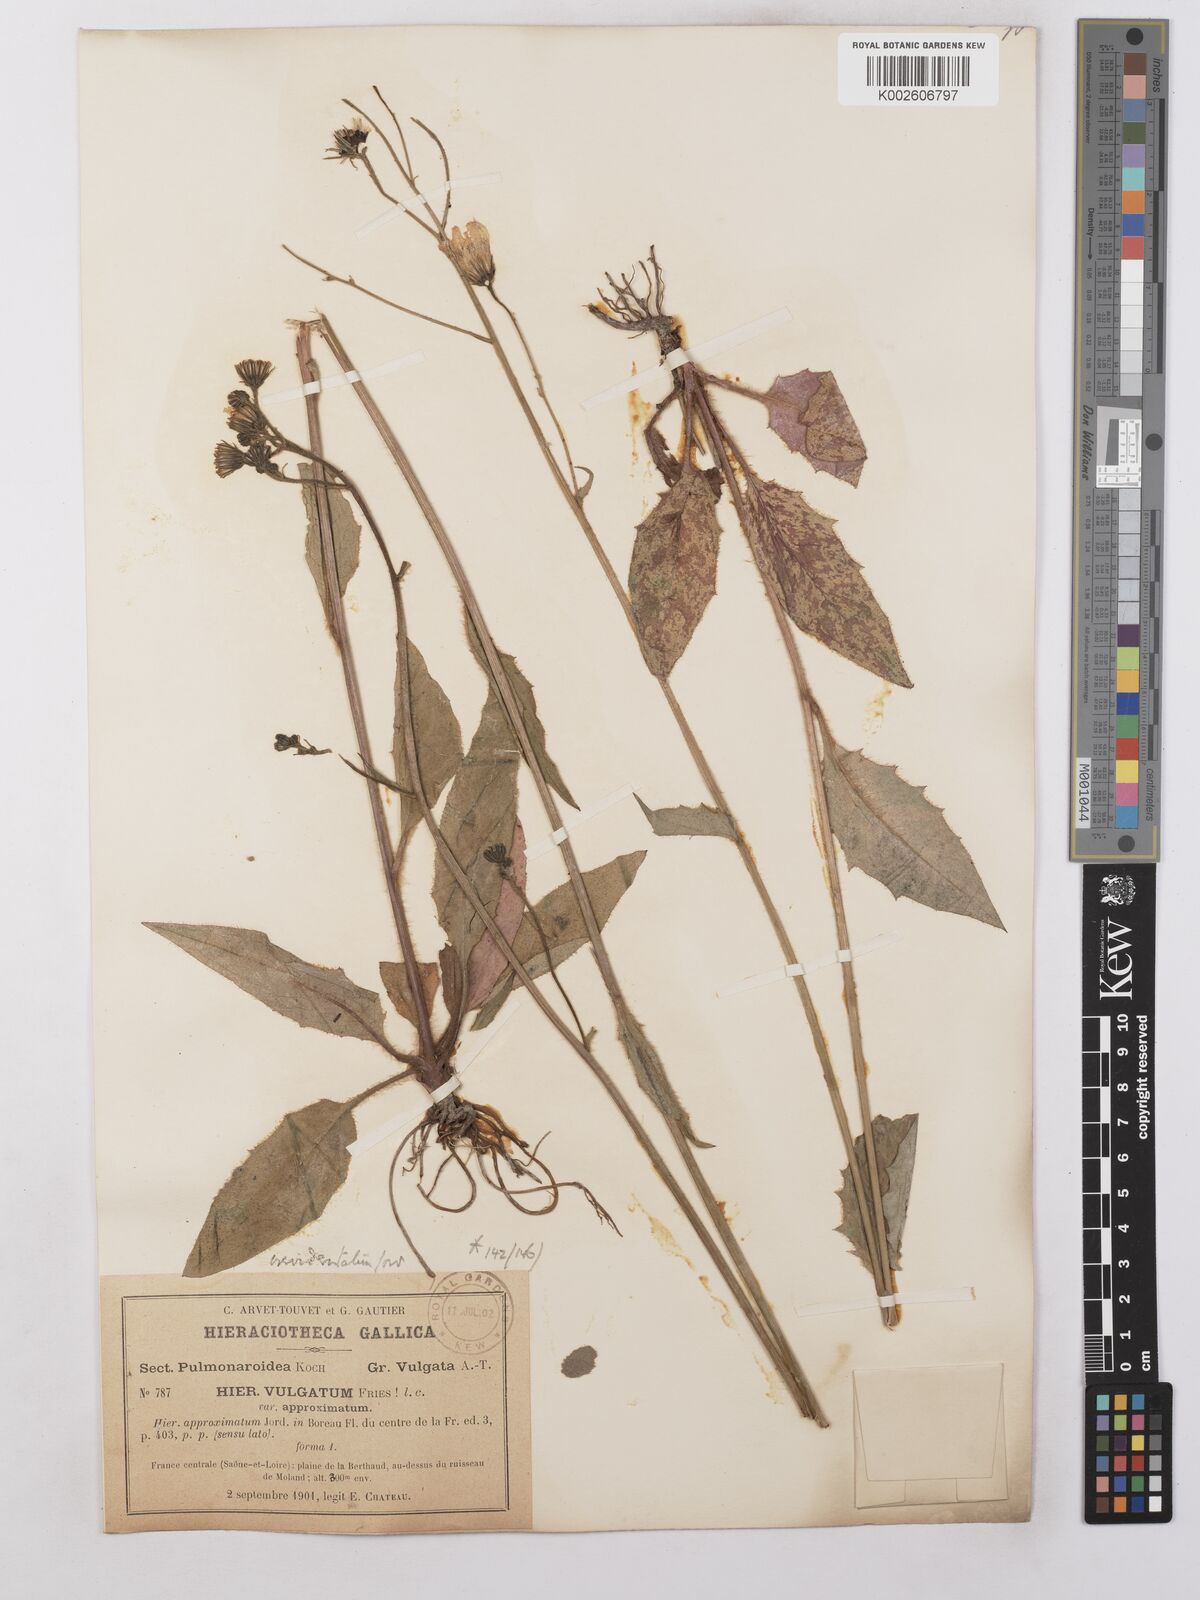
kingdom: Plantae
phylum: Tracheophyta
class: Magnoliopsida
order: Asterales
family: Asteraceae
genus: Hieracium
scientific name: Hieracium lachenalii
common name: Common hawkweed
